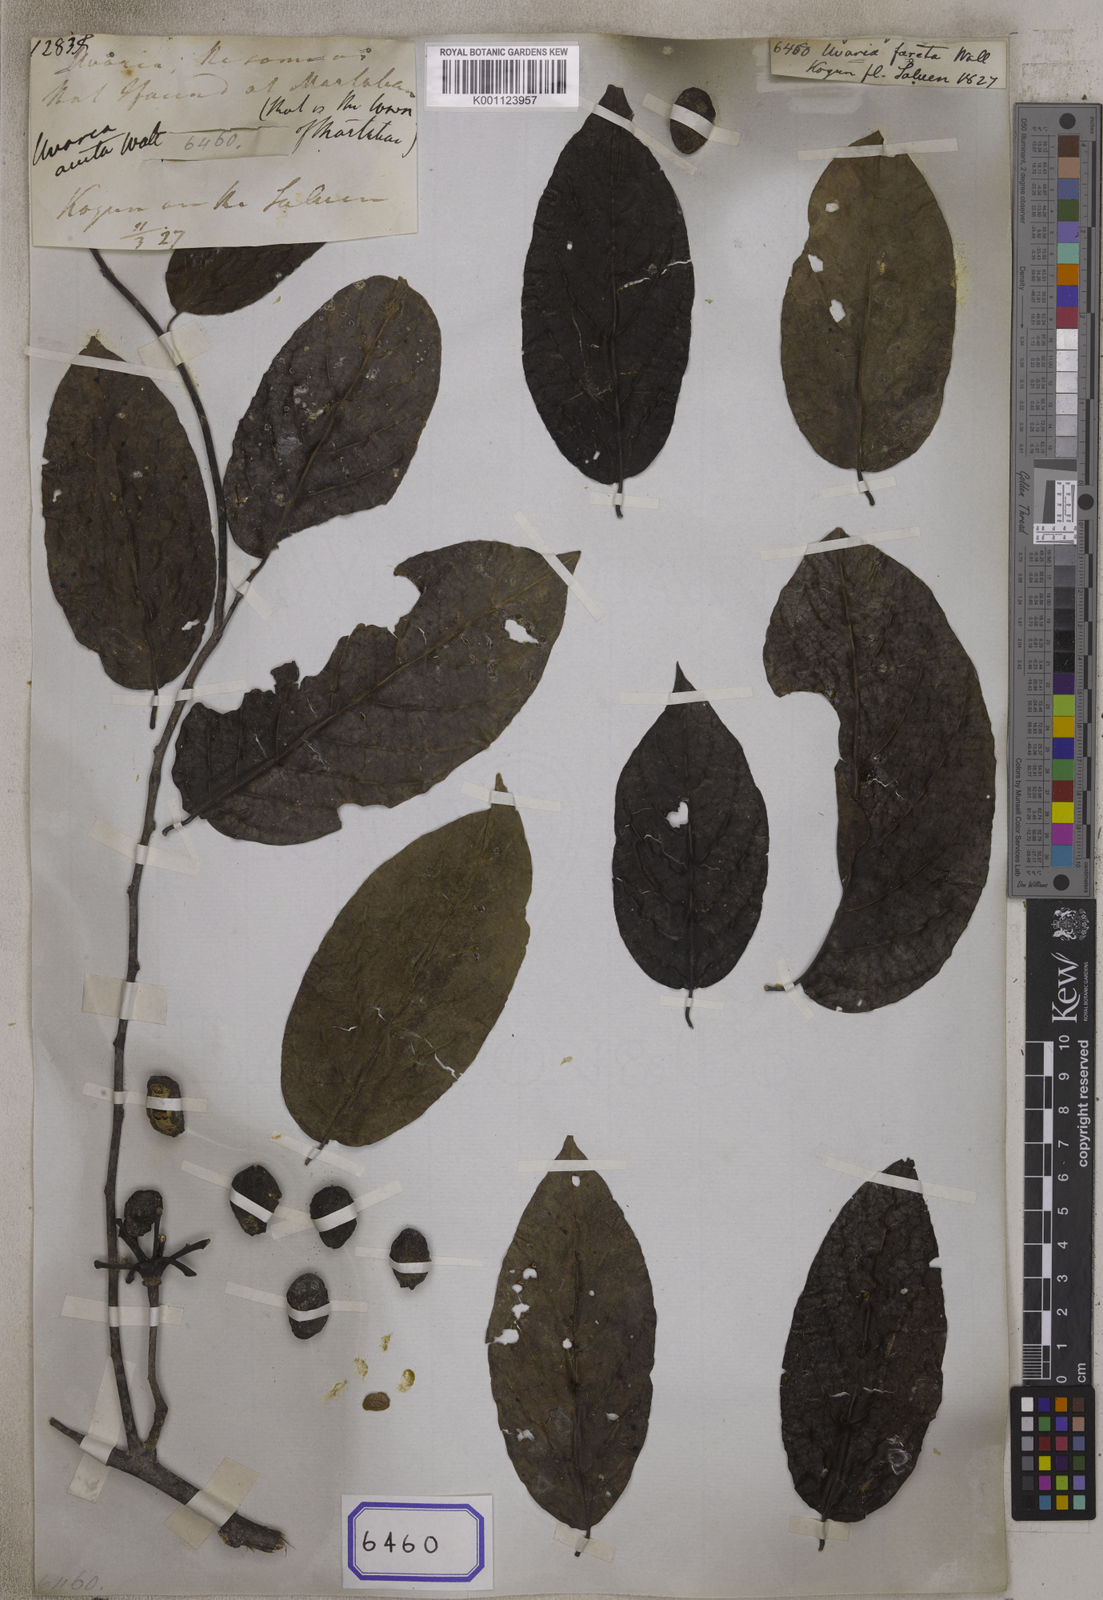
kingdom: Plantae
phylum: Tracheophyta
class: Magnoliopsida
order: Magnoliales
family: Annonaceae
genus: Cananga
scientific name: Cananga odorata
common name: Cananga tree
